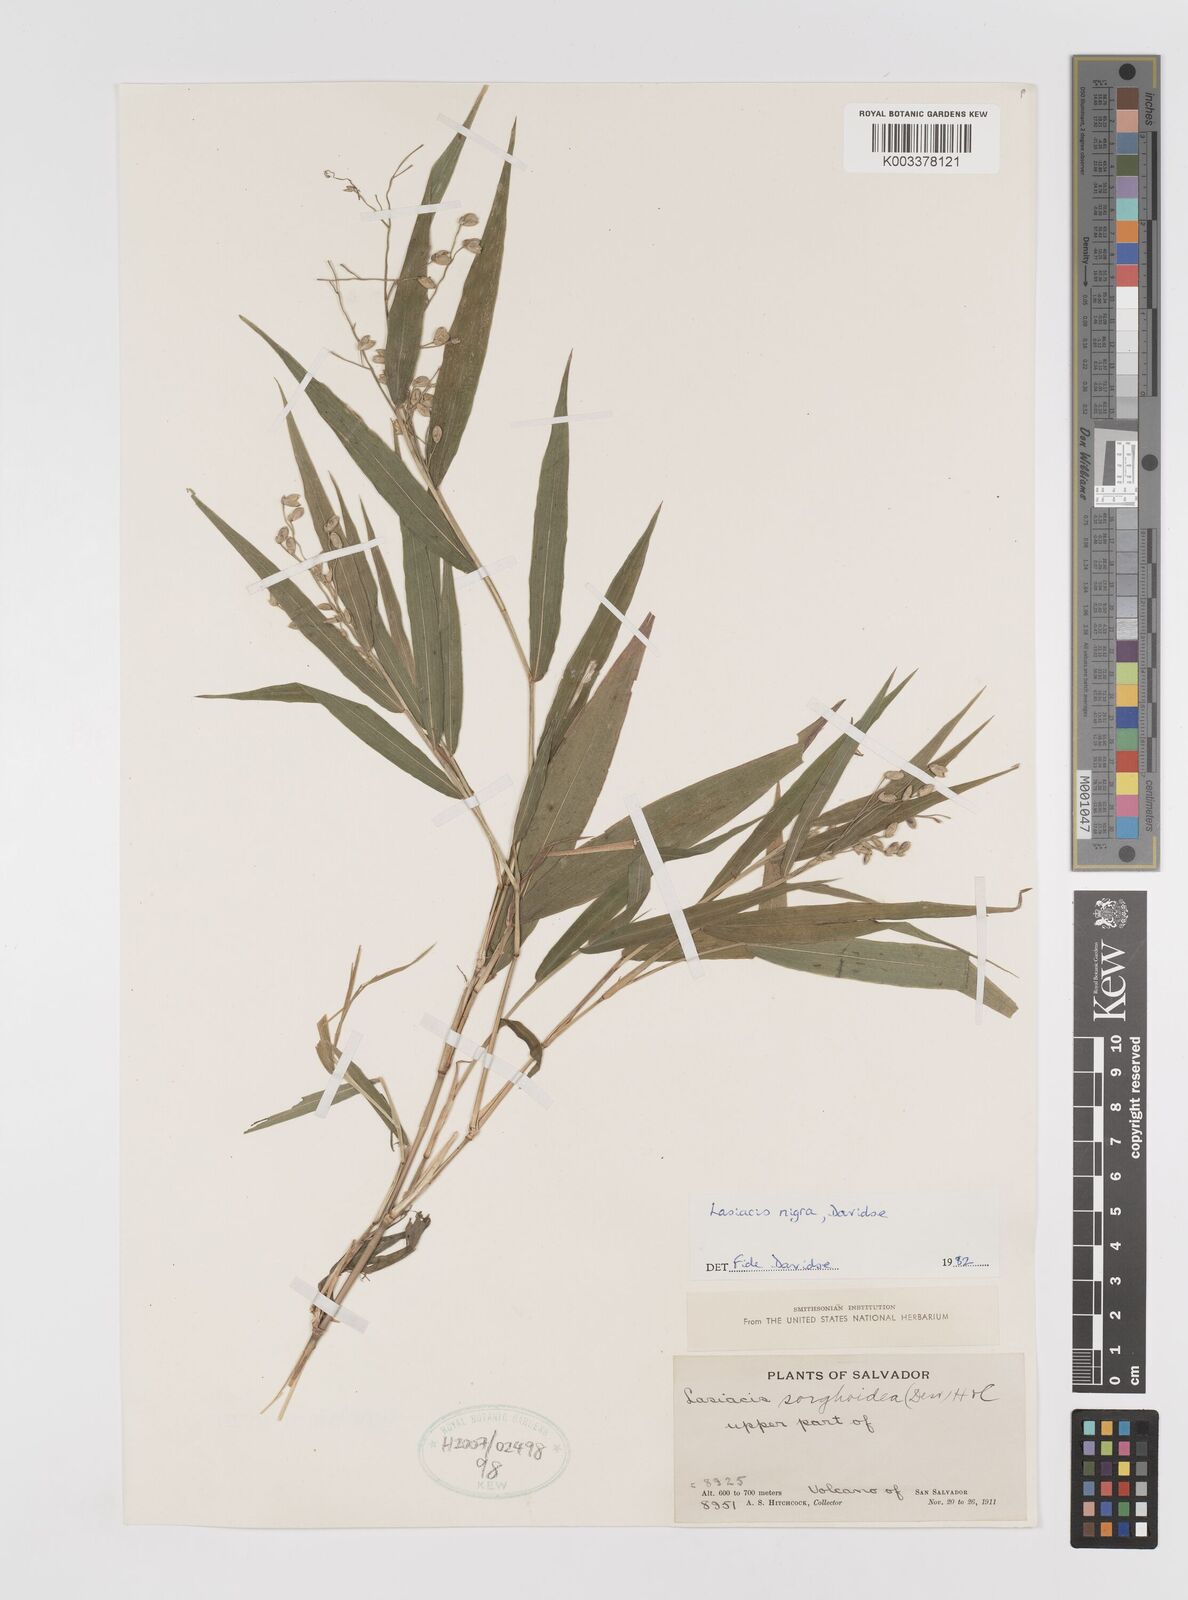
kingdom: Plantae
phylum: Tracheophyta
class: Liliopsida
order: Poales
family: Poaceae
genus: Lasiacis
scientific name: Lasiacis nigra
